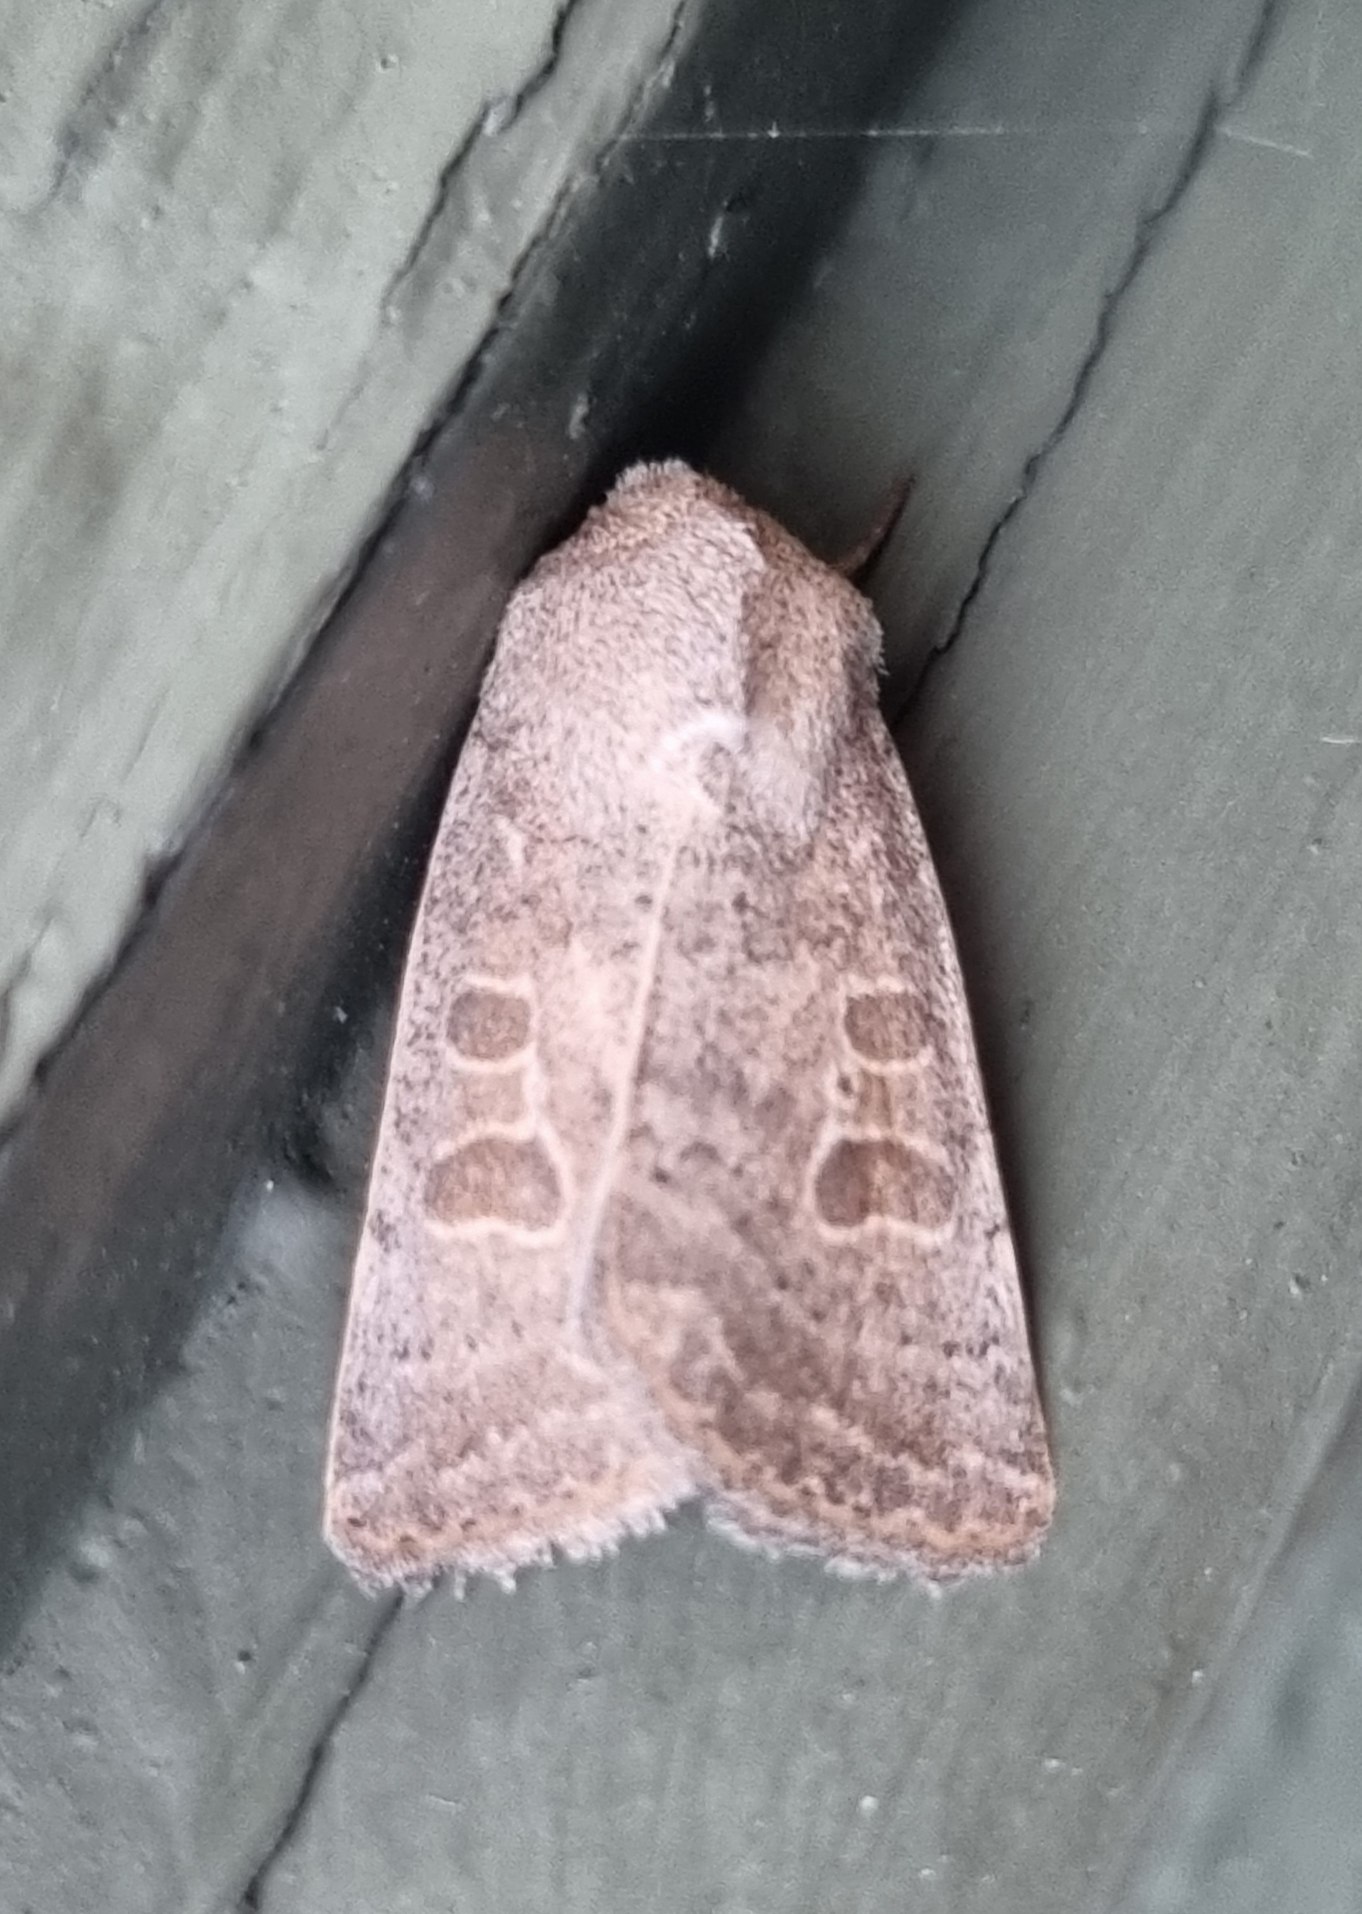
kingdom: Animalia
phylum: Arthropoda
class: Insecta
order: Lepidoptera
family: Noctuidae
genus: Hoplodrina
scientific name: Hoplodrina ambigua
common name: Tvivlsom mus
